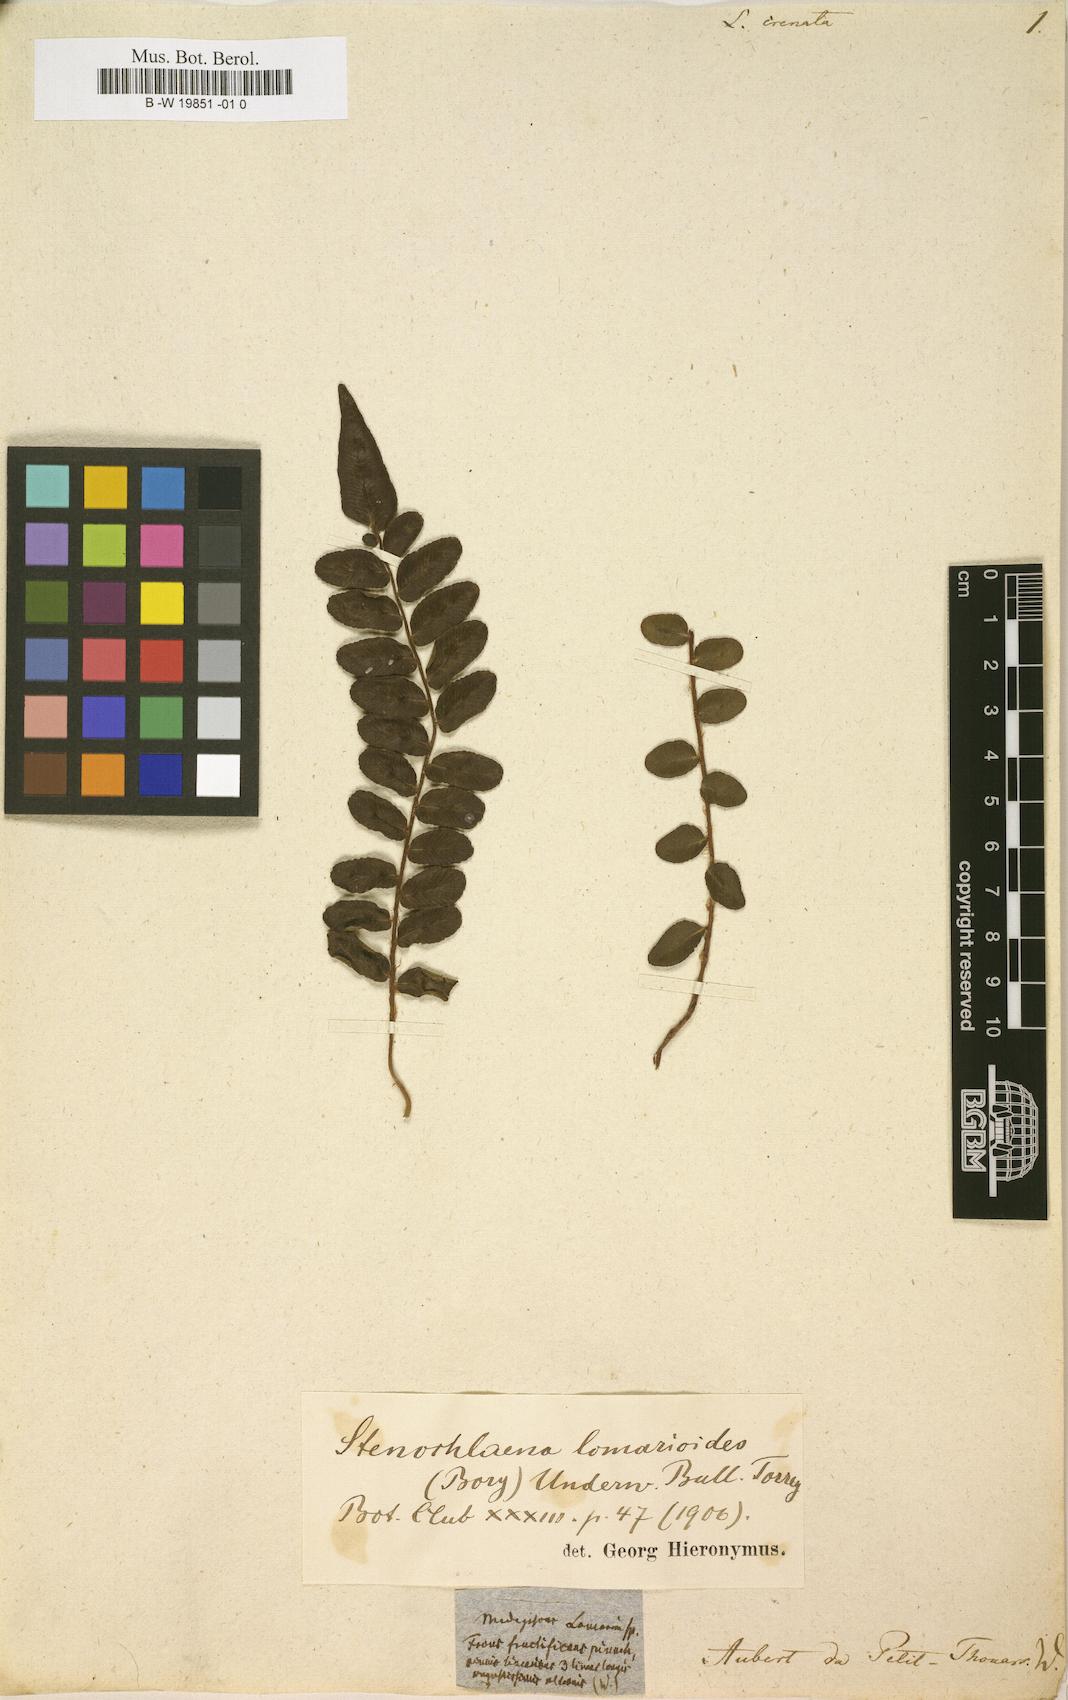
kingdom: Plantae
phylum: Tracheophyta
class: Polypodiopsida
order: Polypodiales
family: Blechnaceae
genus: Struthiopteris
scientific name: Struthiopteris spicant
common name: Deer fern
